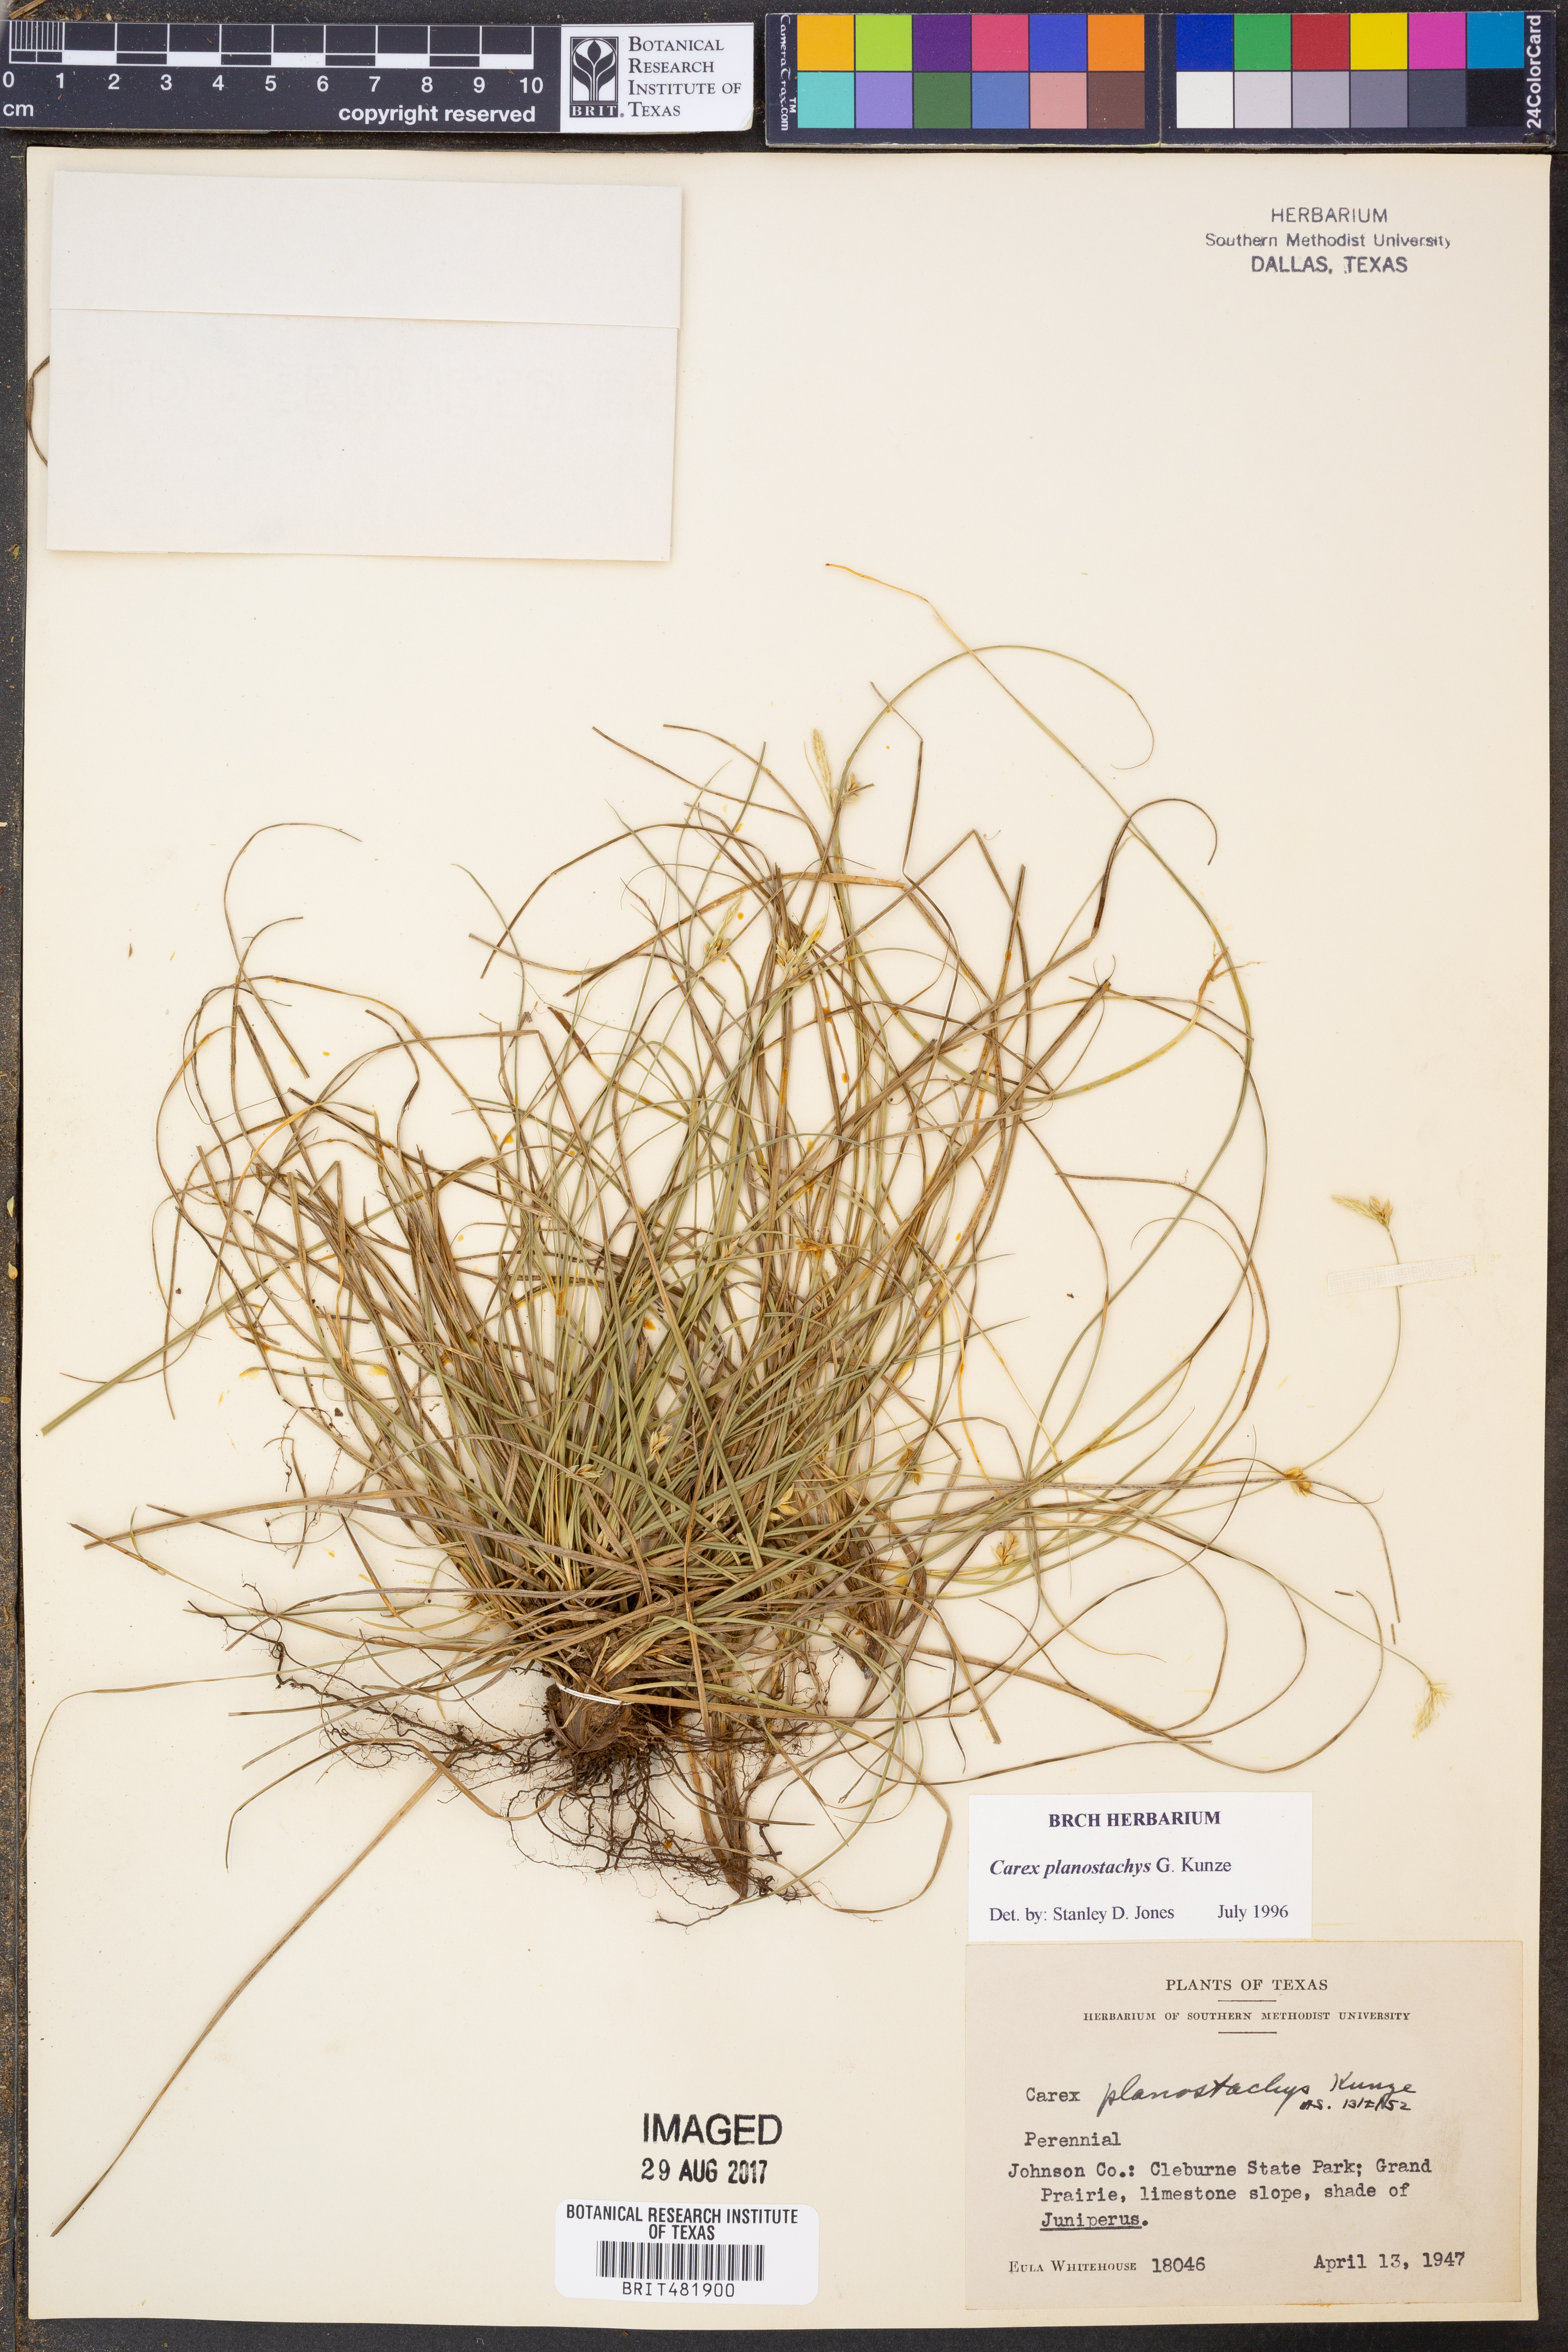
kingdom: Plantae
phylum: Tracheophyta
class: Liliopsida
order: Poales
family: Cyperaceae
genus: Carex
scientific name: Carex planostachys
